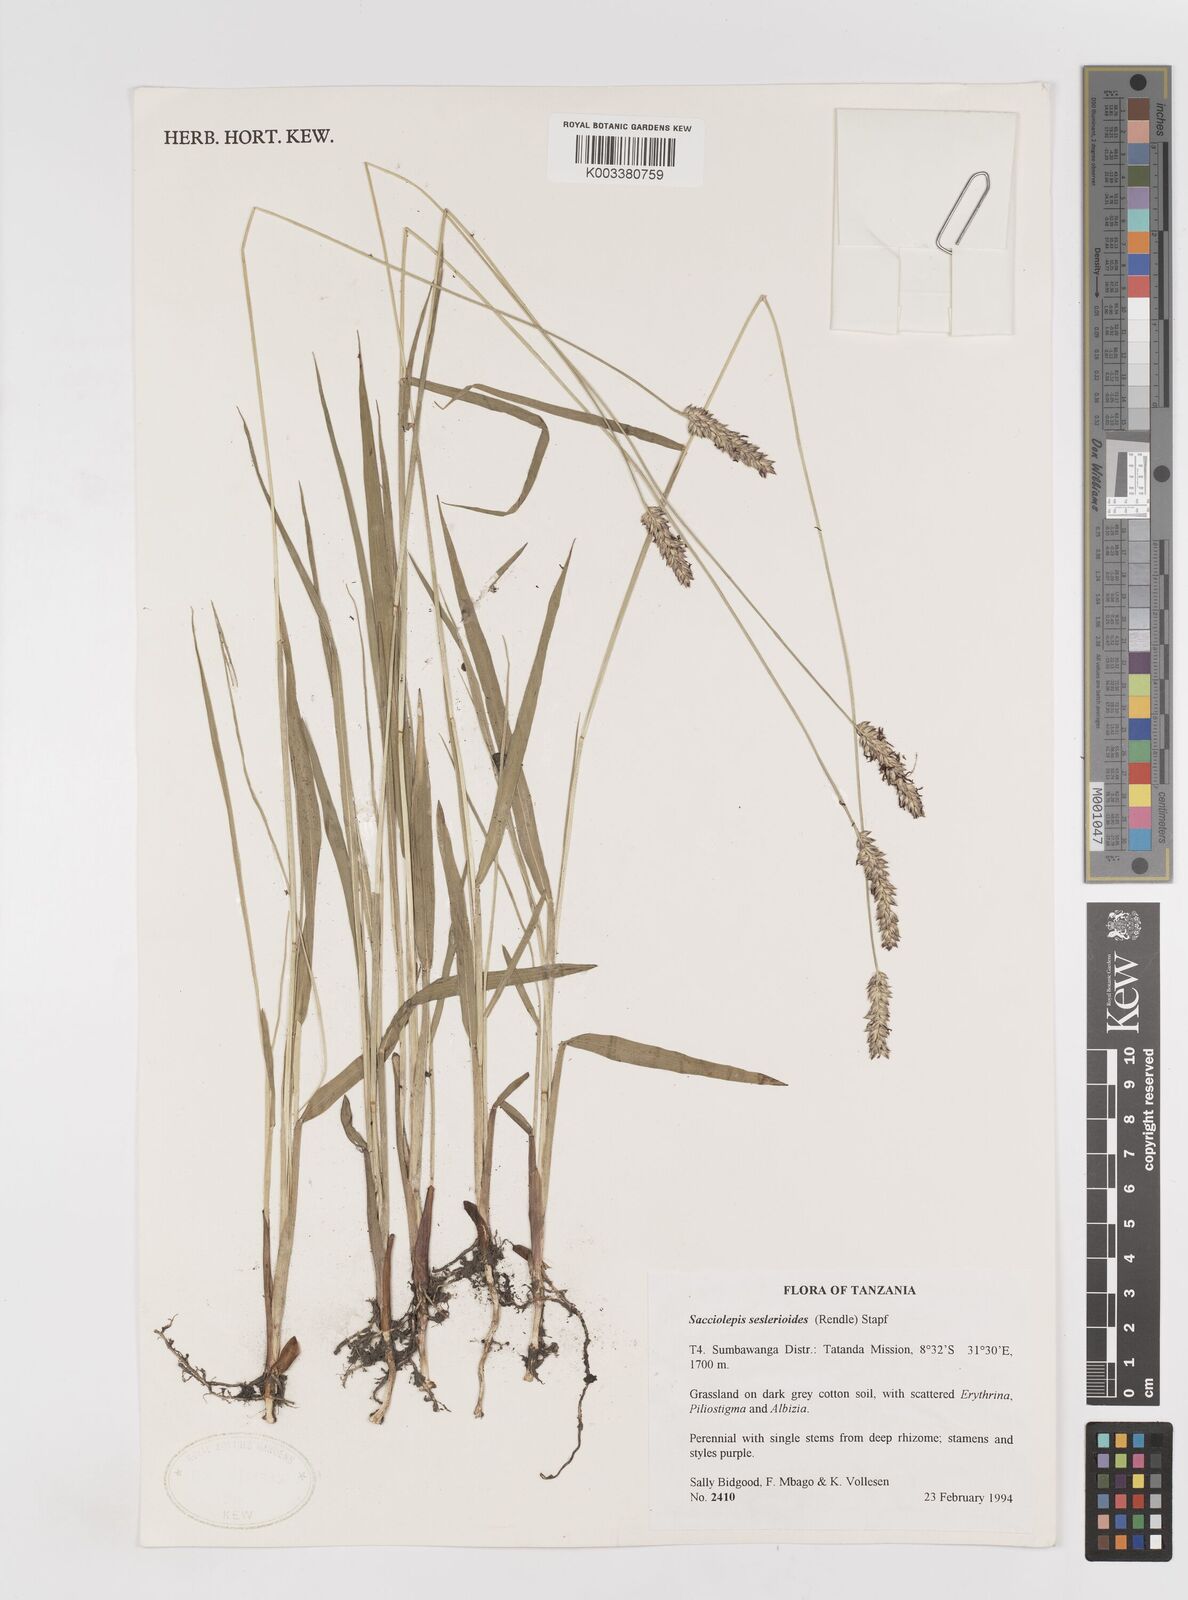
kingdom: Plantae
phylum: Tracheophyta
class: Liliopsida
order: Poales
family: Poaceae
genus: Sacciolepis
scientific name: Sacciolepis seslerioides
